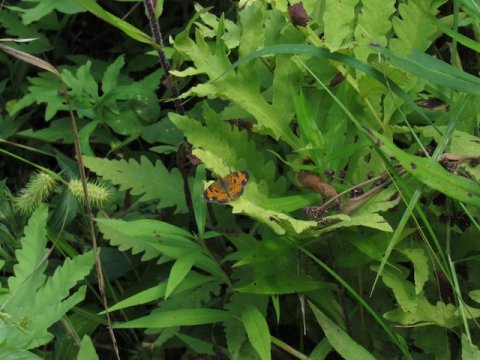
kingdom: Animalia
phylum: Arthropoda
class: Insecta
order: Lepidoptera
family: Nymphalidae
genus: Phyciodes
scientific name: Phyciodes tharos
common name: Pearl Crescent
